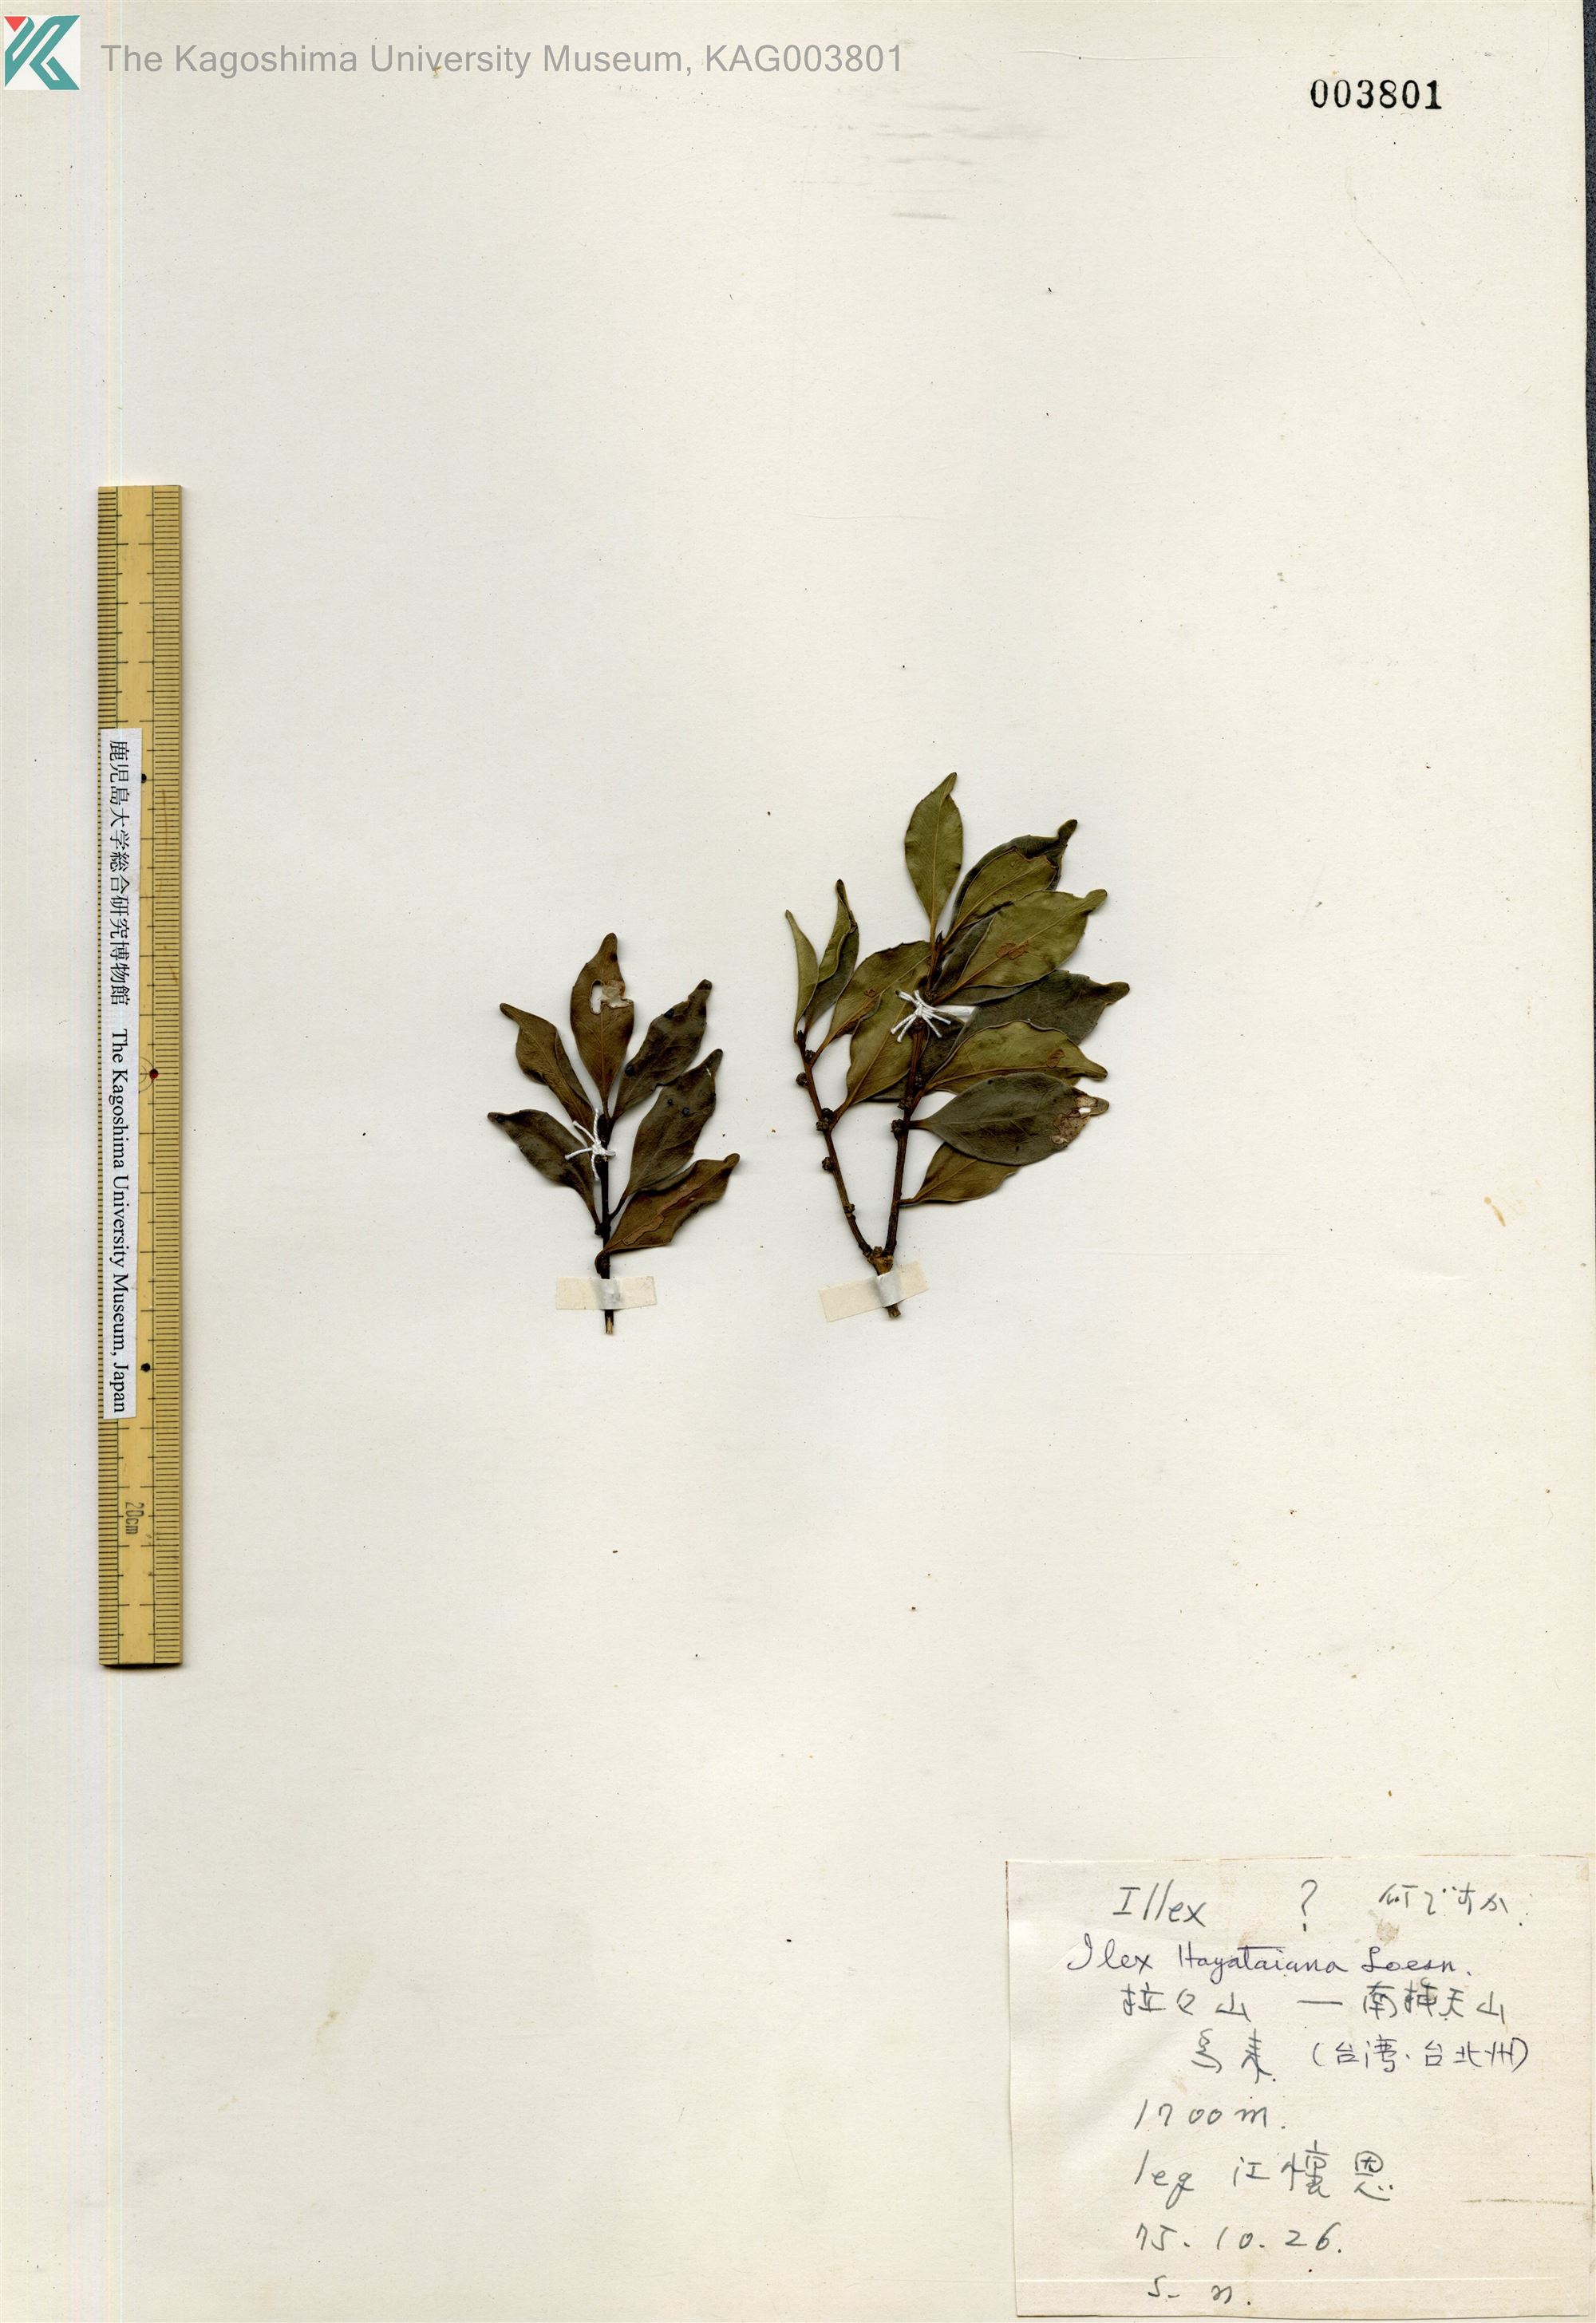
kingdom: Plantae
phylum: Tracheophyta
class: Magnoliopsida
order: Aquifoliales
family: Aquifoliaceae
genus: Ilex
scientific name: Ilex hayataiana
